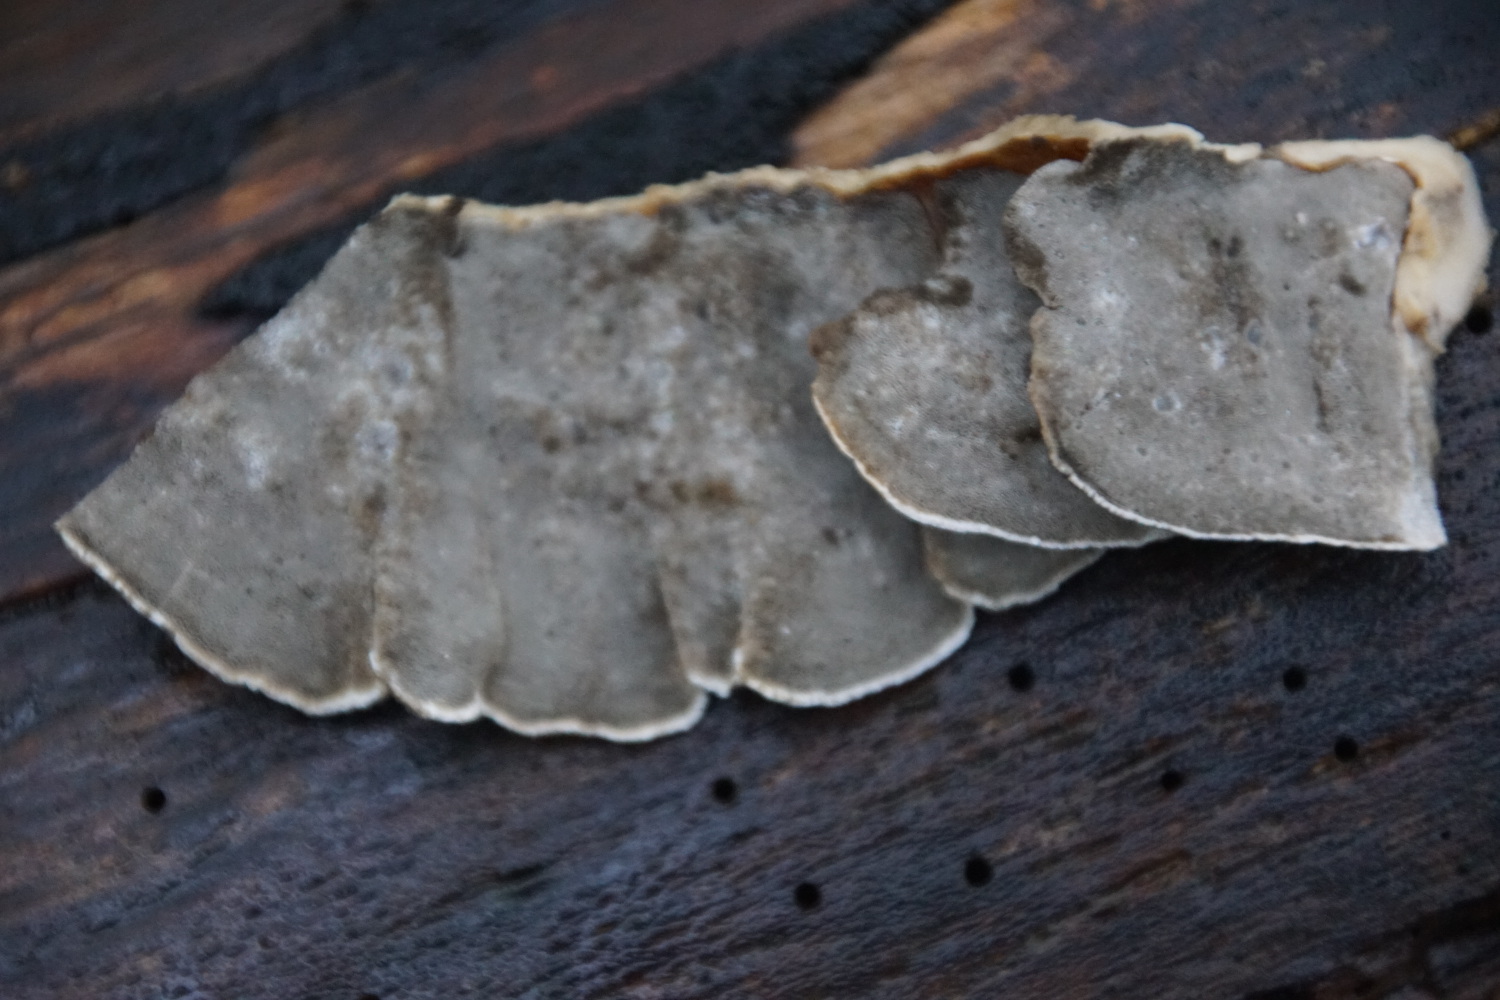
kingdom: Fungi
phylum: Basidiomycota
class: Agaricomycetes
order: Polyporales
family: Phanerochaetaceae
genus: Bjerkandera
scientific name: Bjerkandera adusta
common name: sveden sodporesvamp
